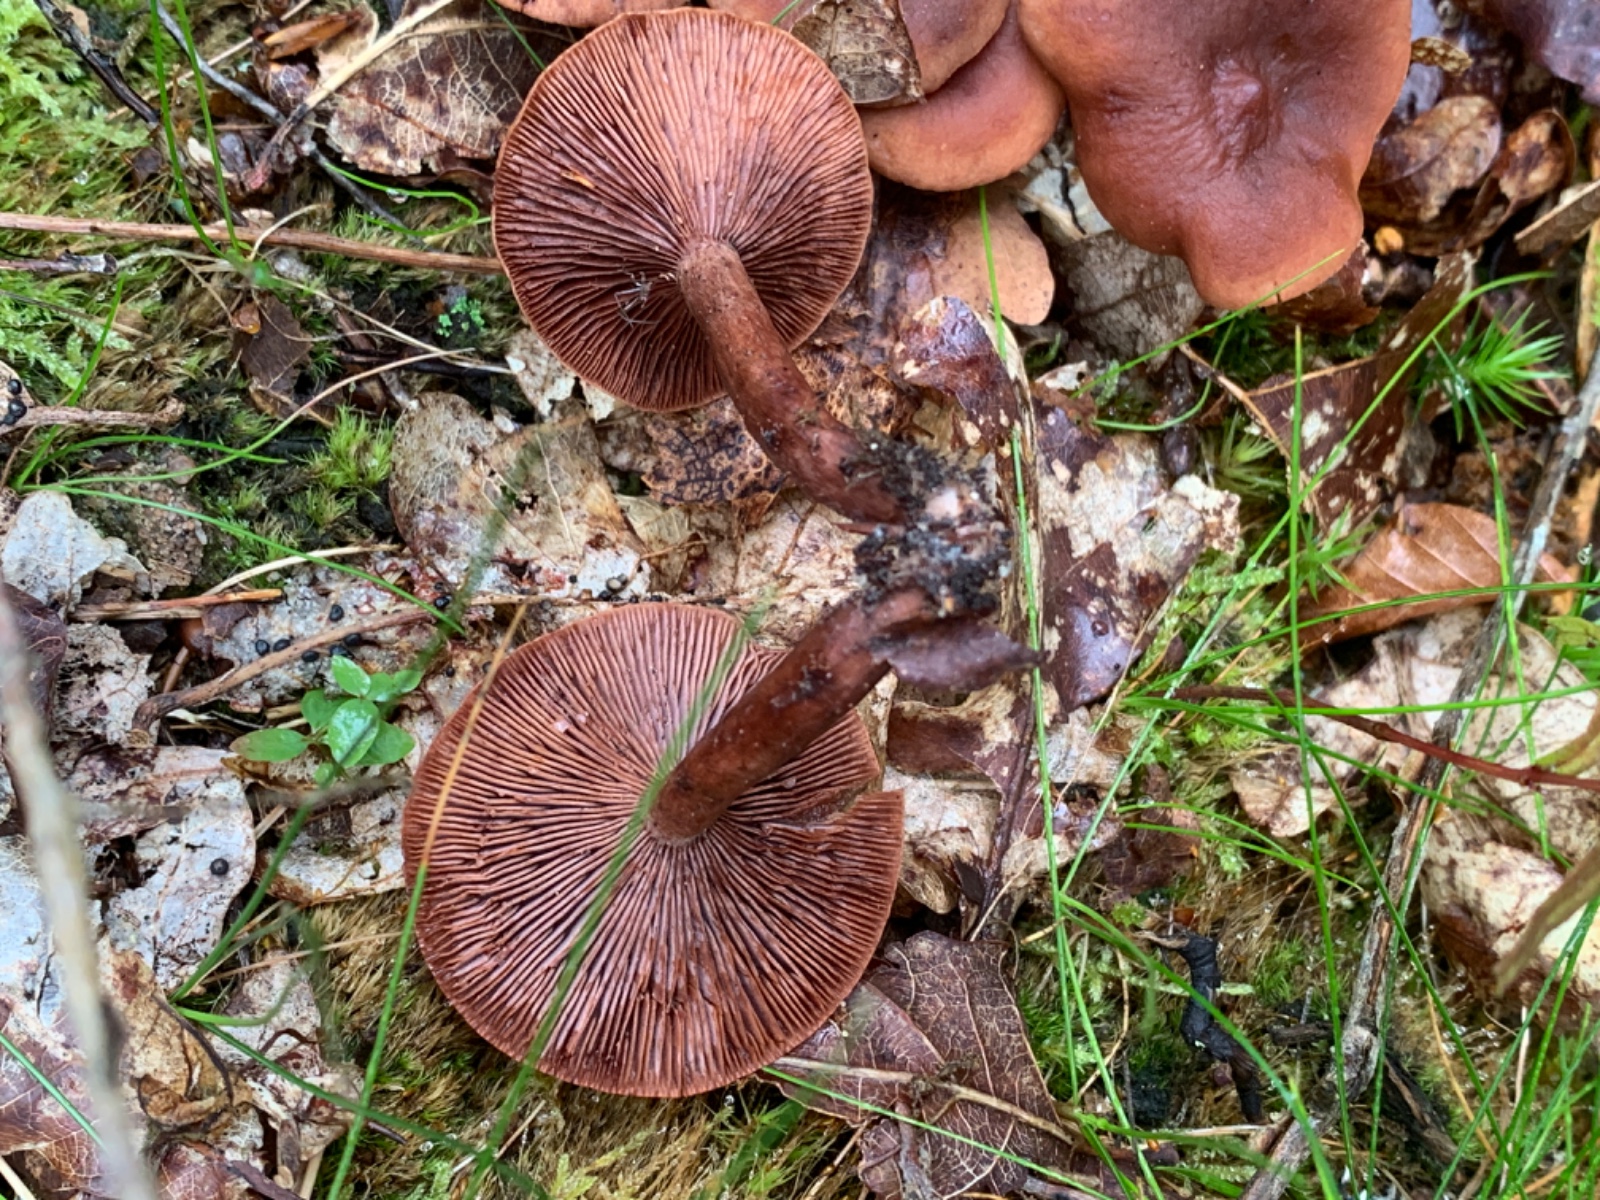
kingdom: Fungi
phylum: Basidiomycota
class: Agaricomycetes
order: Russulales
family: Russulaceae
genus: Lactarius
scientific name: Lactarius camphoratus
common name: kamfer-mælkehat
